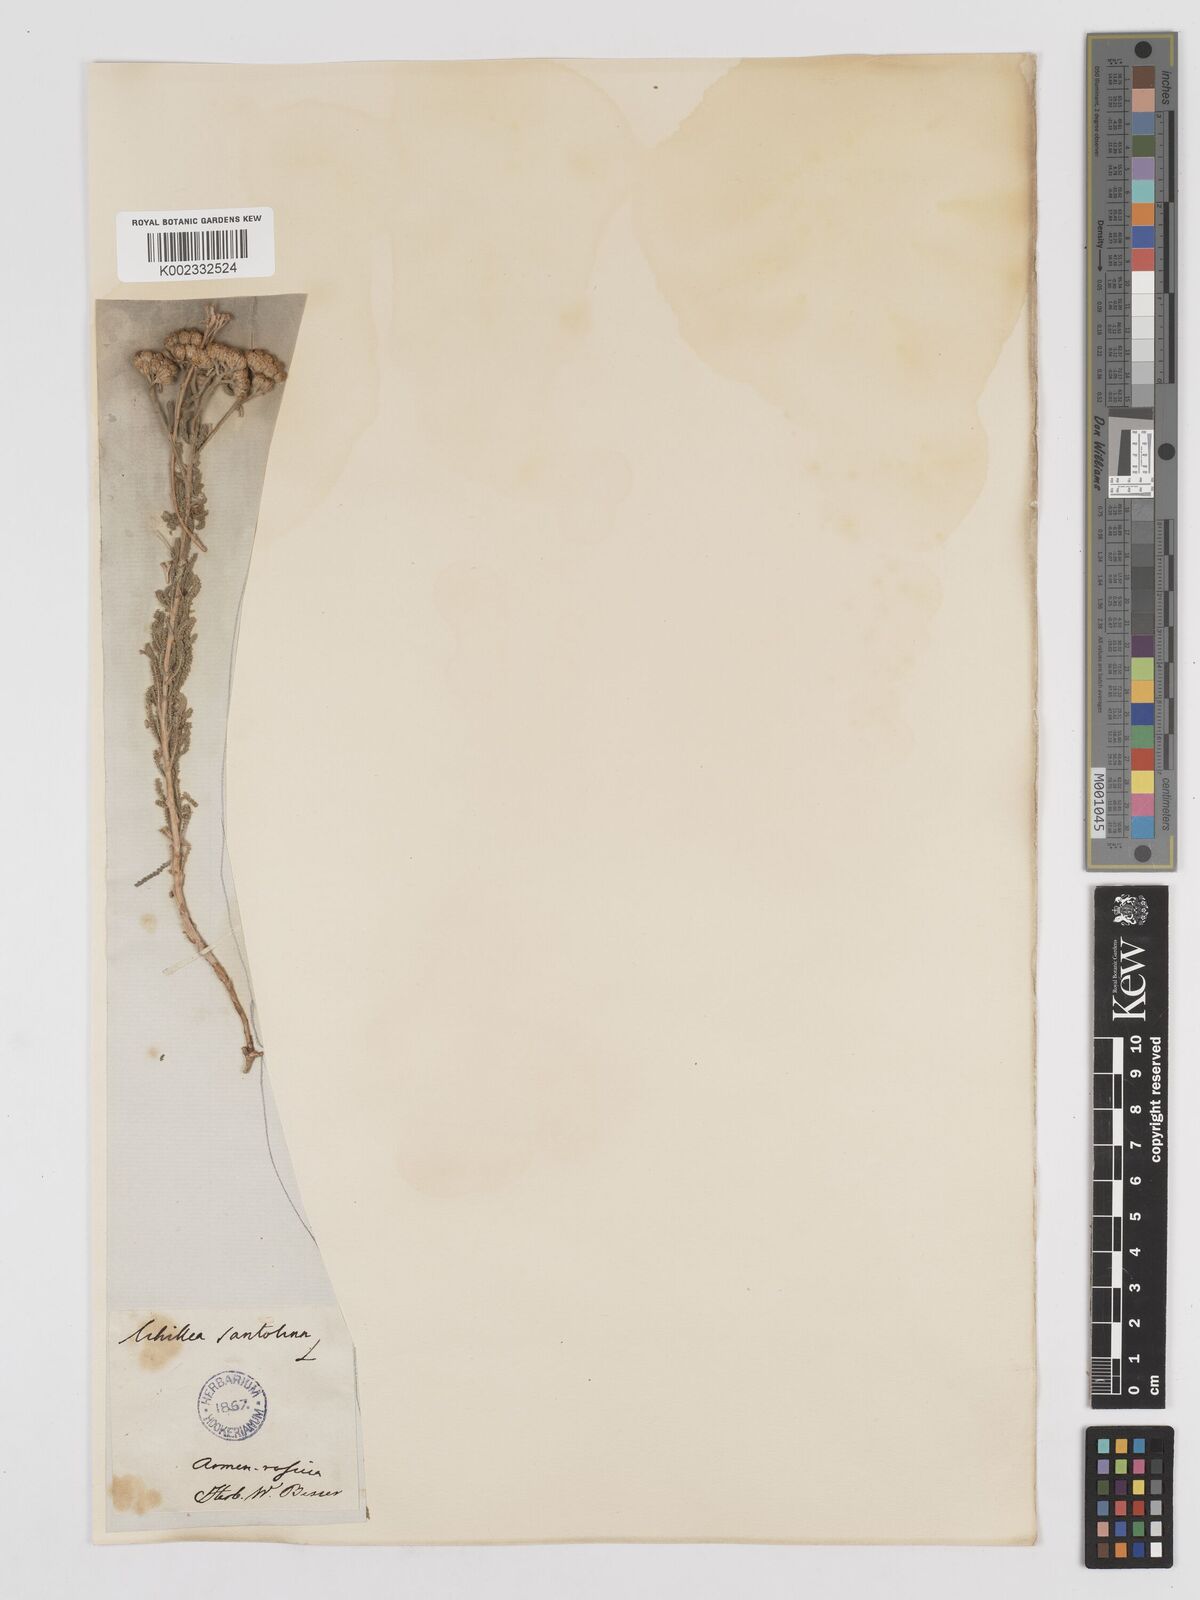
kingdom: Plantae
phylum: Tracheophyta
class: Magnoliopsida
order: Asterales
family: Asteraceae
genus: Achillea
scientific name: Achillea tenuifolia
